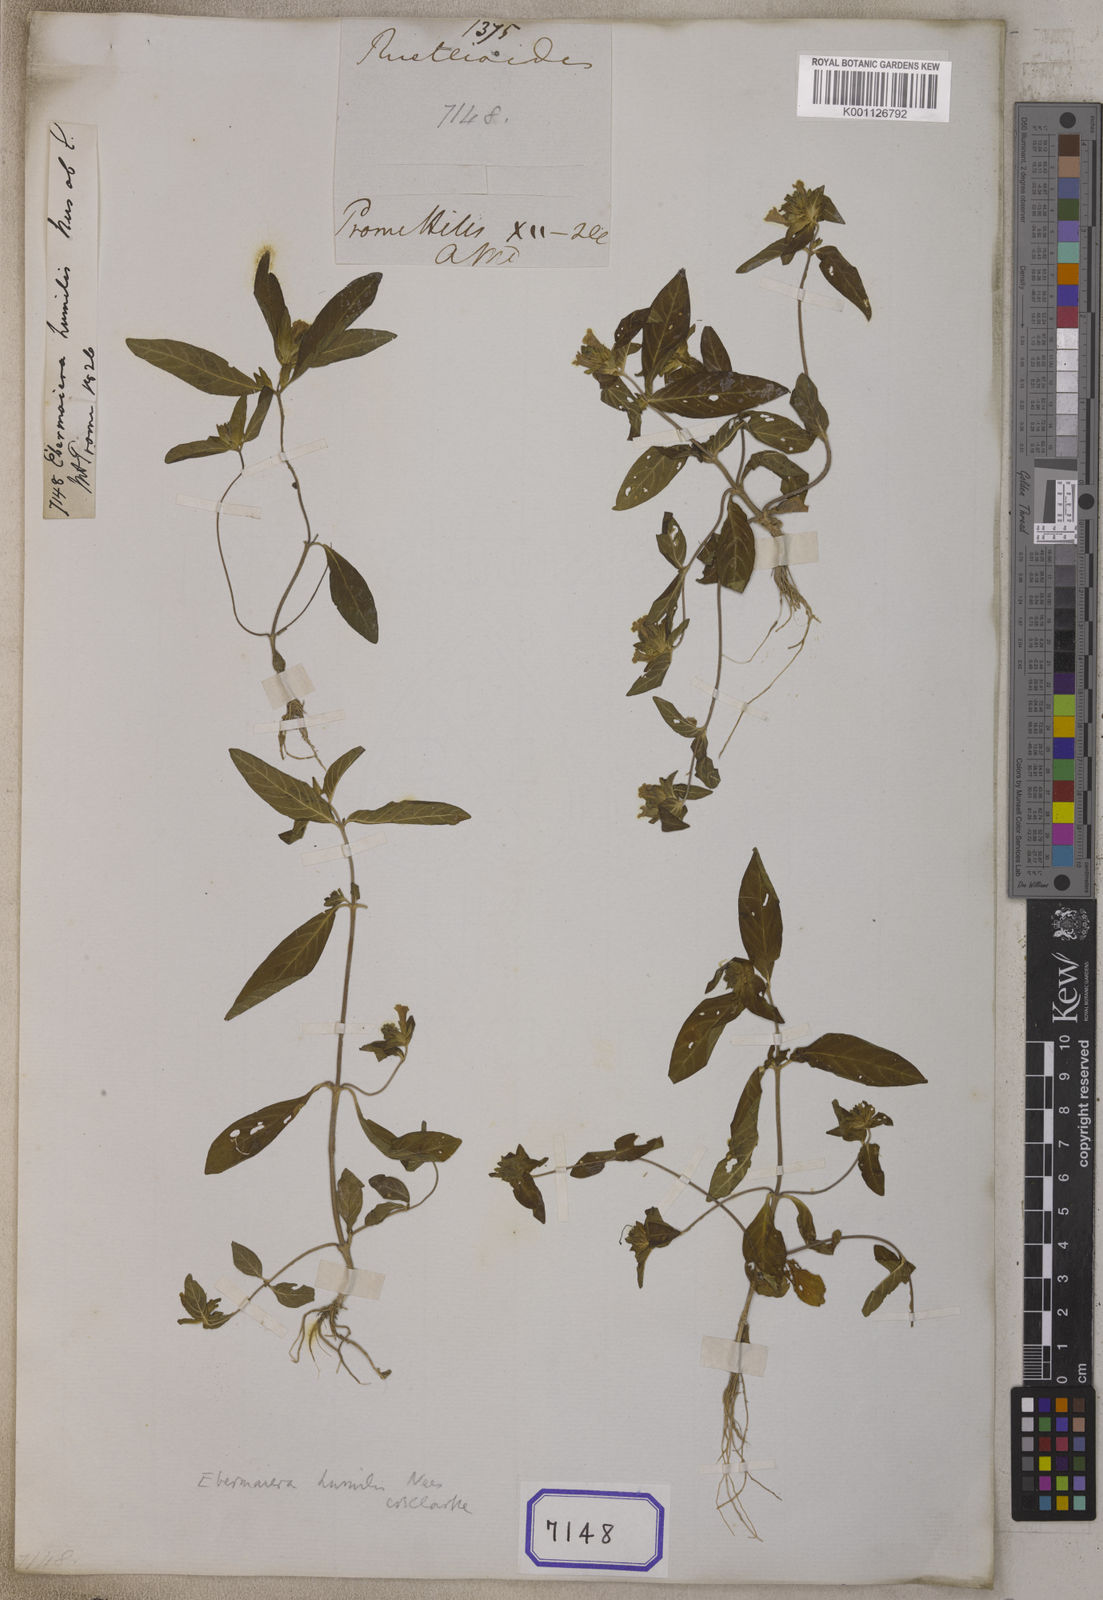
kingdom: Plantae
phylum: Tracheophyta
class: Magnoliopsida
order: Lamiales
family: Acanthaceae
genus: Staurogyne
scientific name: Staurogyne polybotrya
